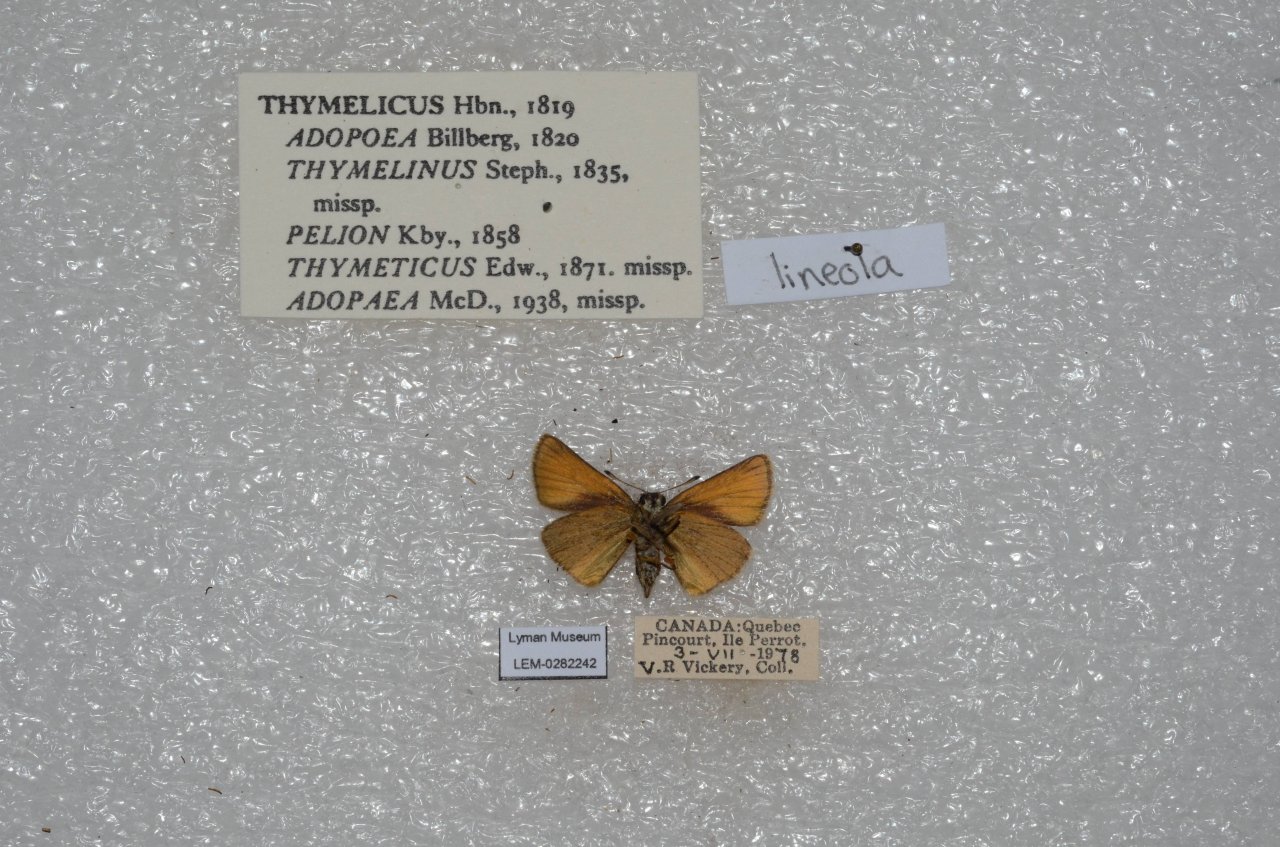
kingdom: Animalia
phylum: Arthropoda
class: Insecta
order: Lepidoptera
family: Hesperiidae
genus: Thymelicus
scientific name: Thymelicus lineola
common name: European Skipper
